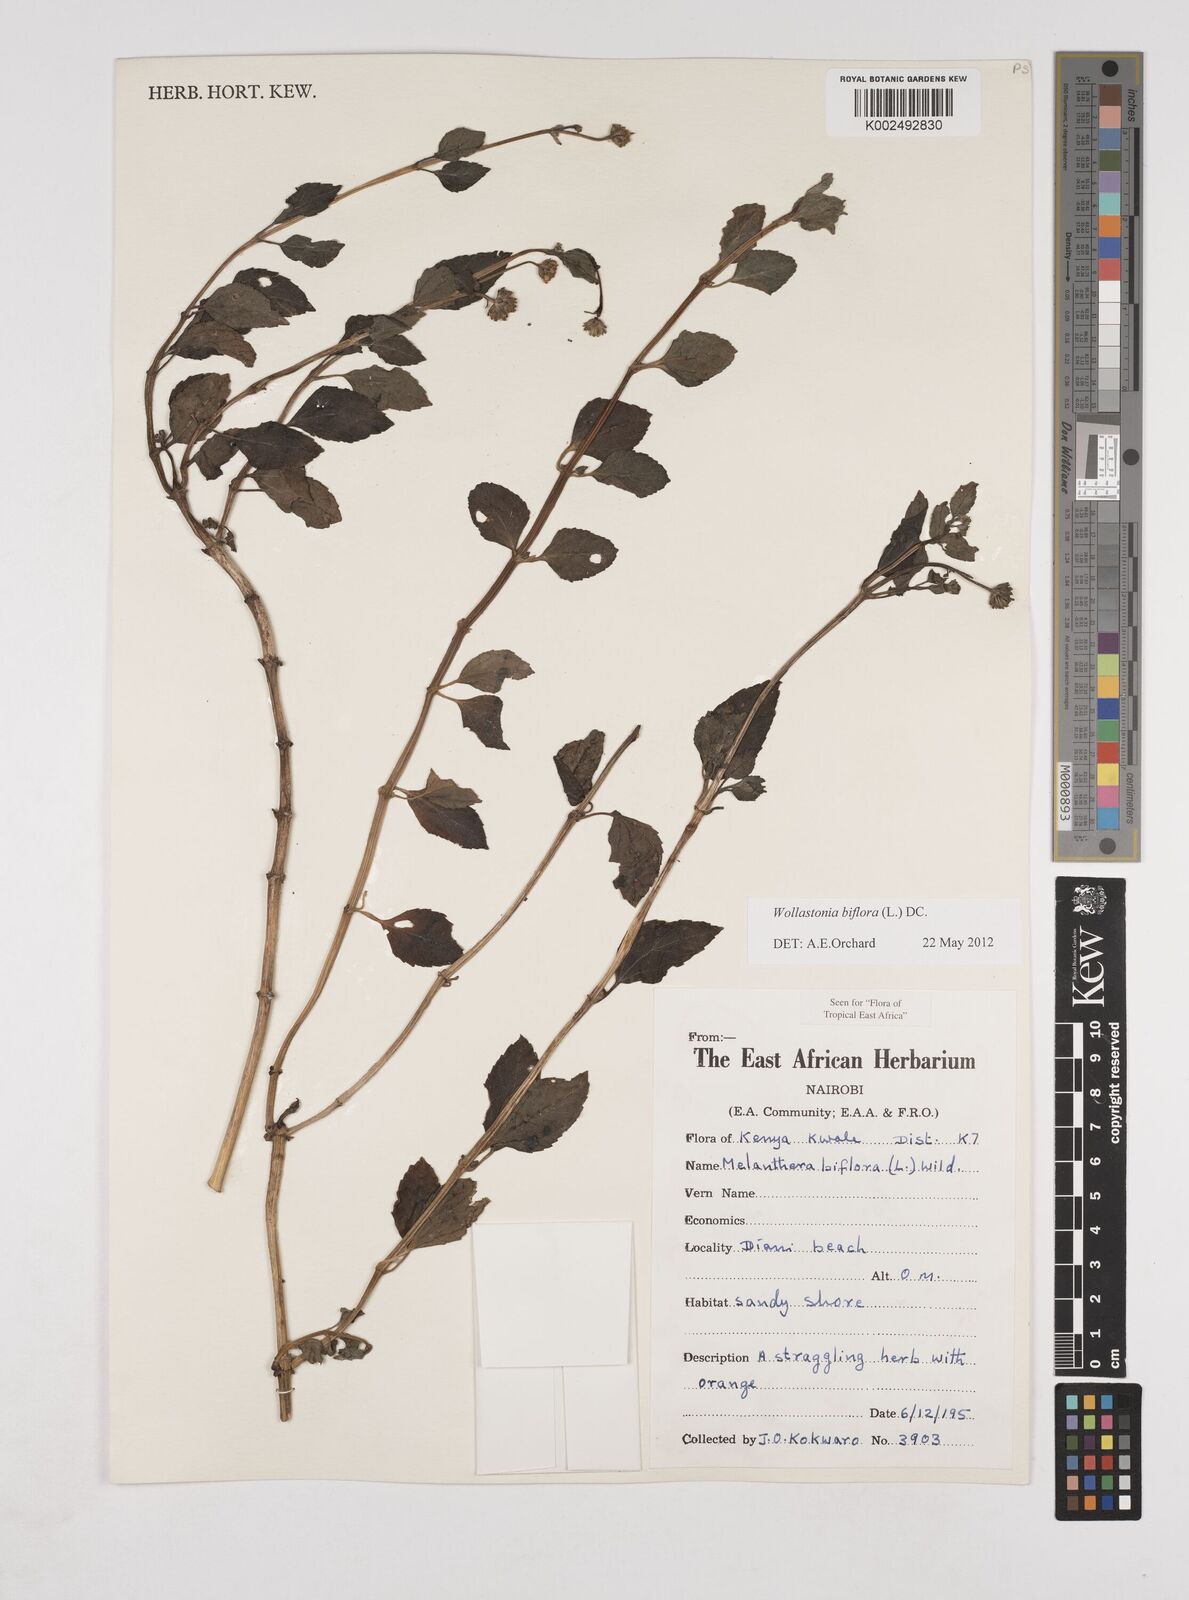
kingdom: Plantae
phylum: Tracheophyta
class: Magnoliopsida
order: Asterales
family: Asteraceae
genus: Wollastonia
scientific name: Wollastonia biflora
